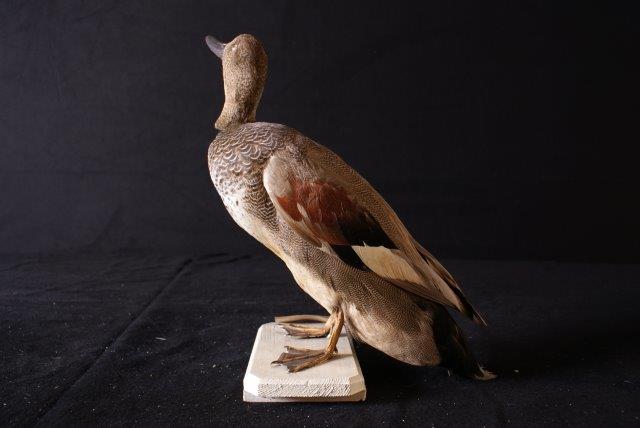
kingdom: Animalia
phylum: Chordata
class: Aves
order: Anseriformes
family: Anatidae
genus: Mareca
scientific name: Mareca strepera
